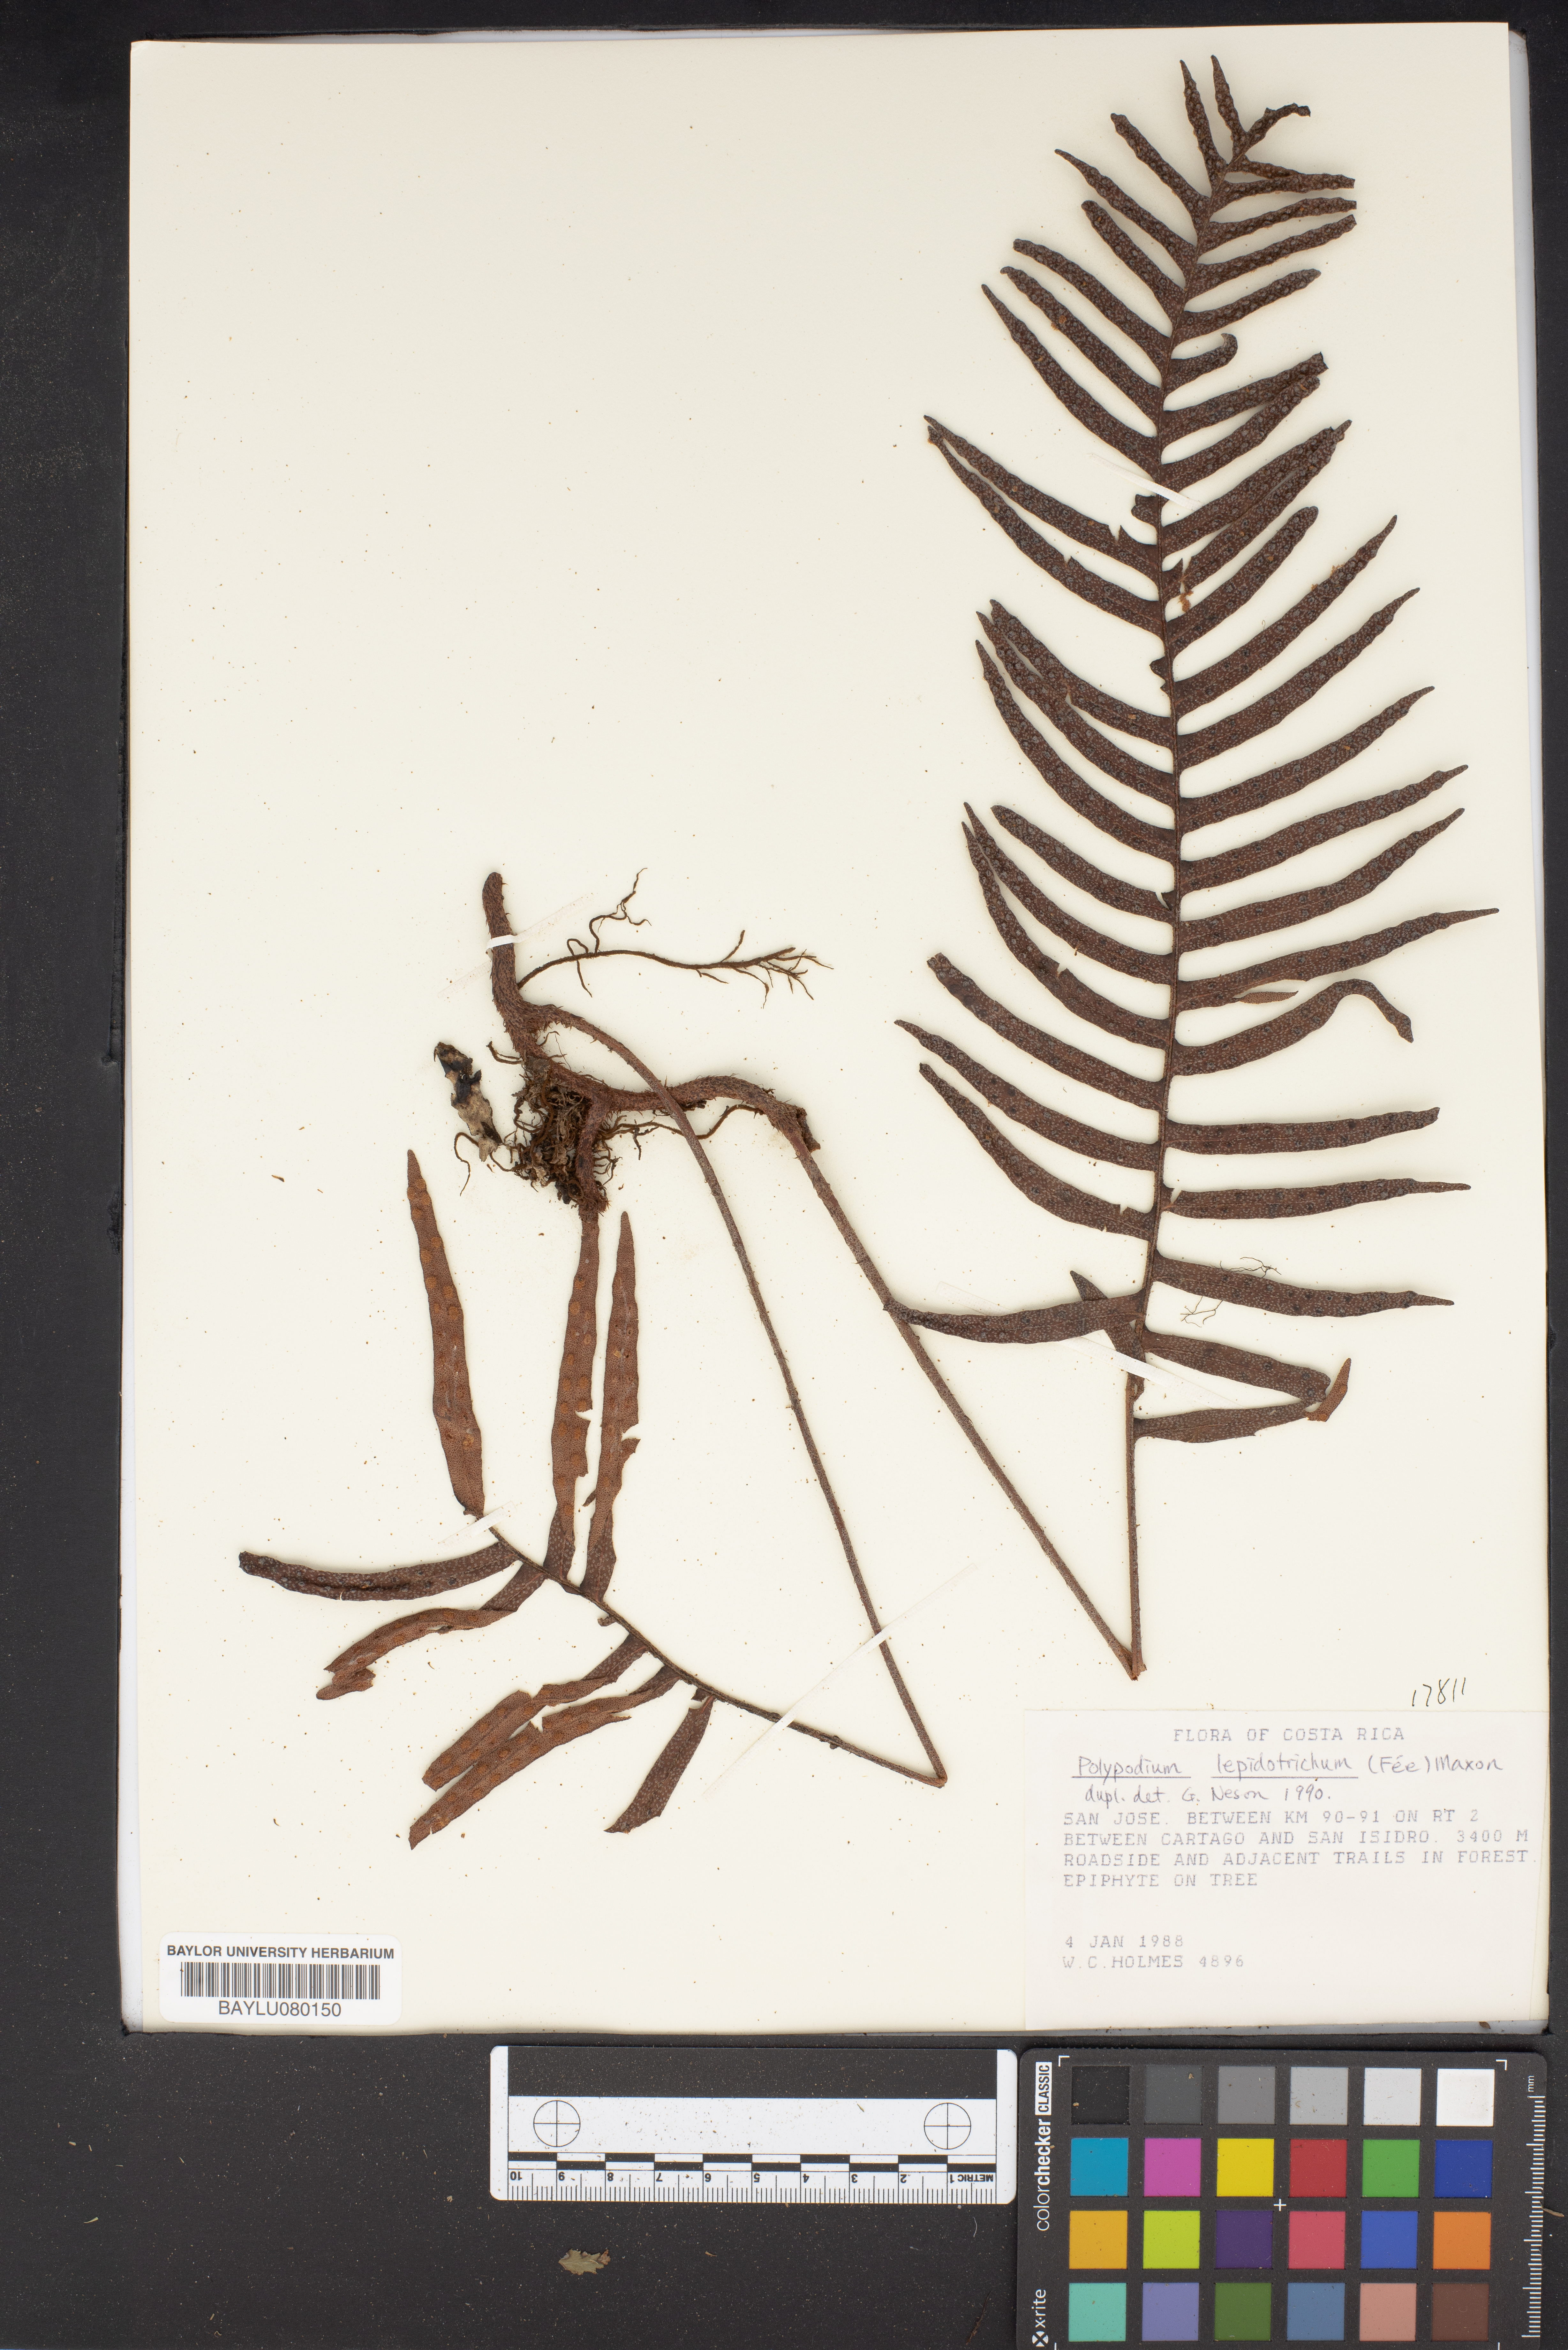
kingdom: Plantae
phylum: Tracheophyta
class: Polypodiopsida
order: Polypodiales
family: Polypodiaceae
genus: Pleopeltis
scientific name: Pleopeltis lepidotricha
